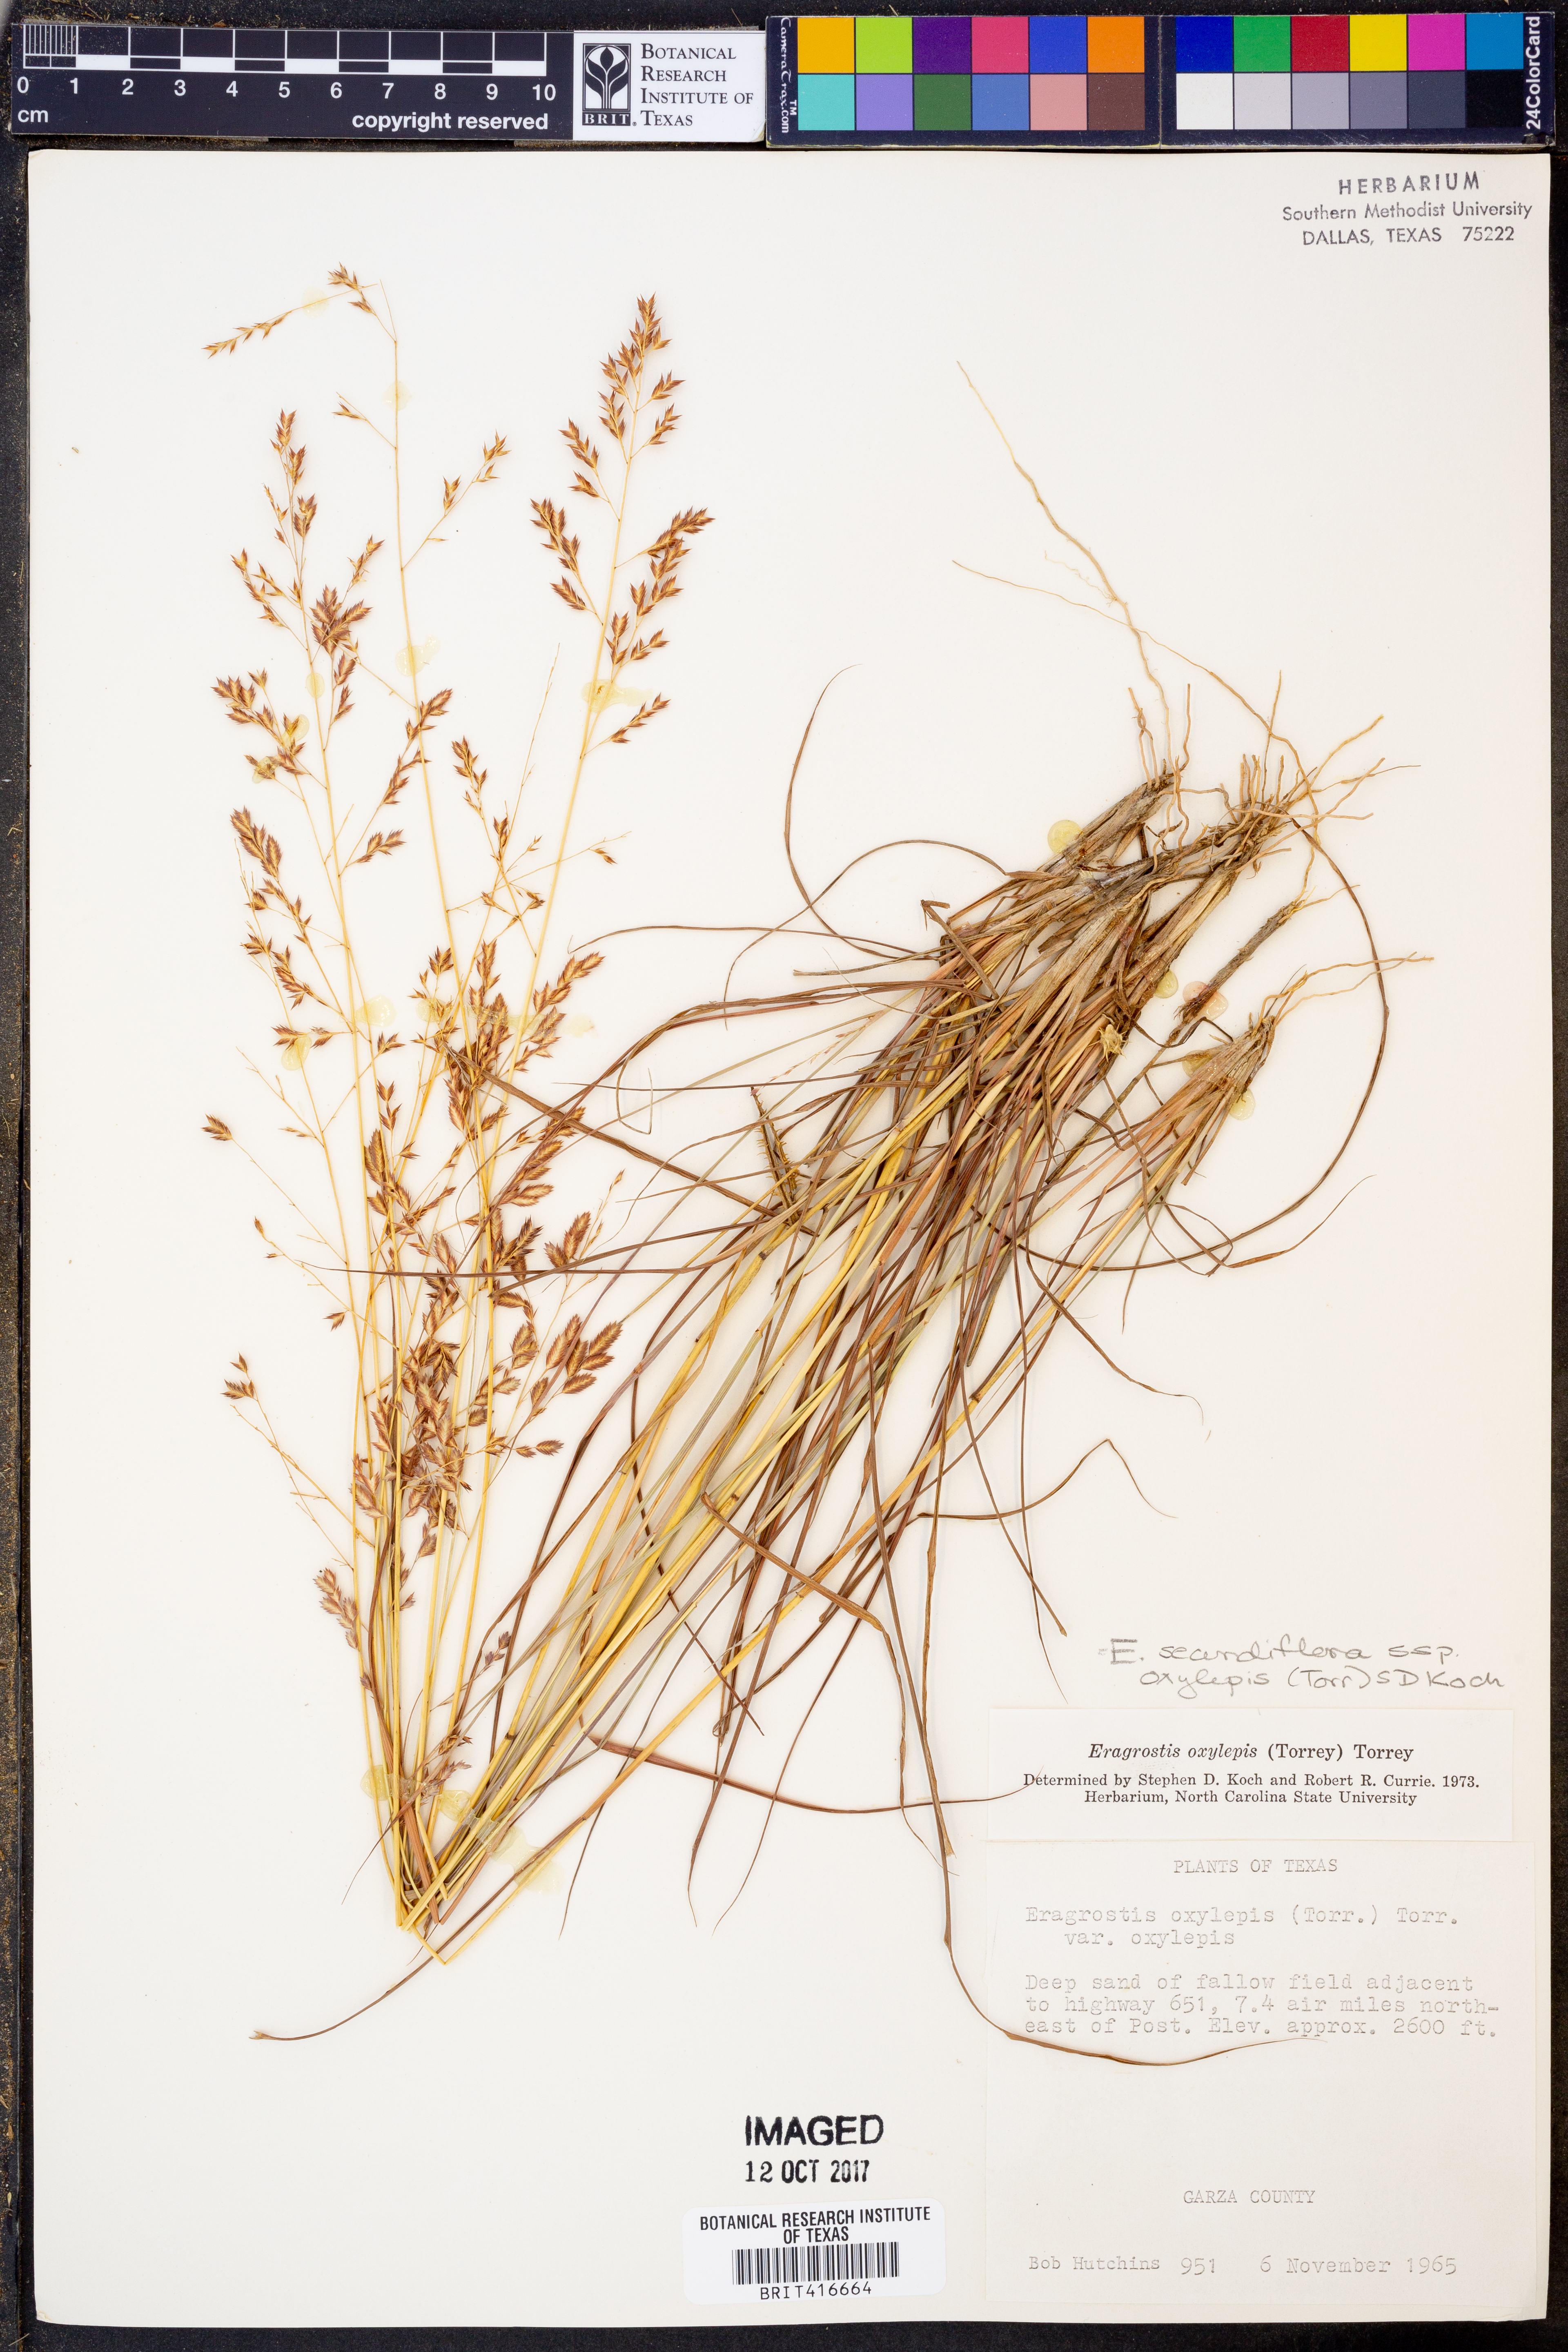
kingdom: Plantae
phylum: Tracheophyta
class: Liliopsida
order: Poales
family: Poaceae
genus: Eragrostis
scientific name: Eragrostis secundiflora
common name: Red love grass
